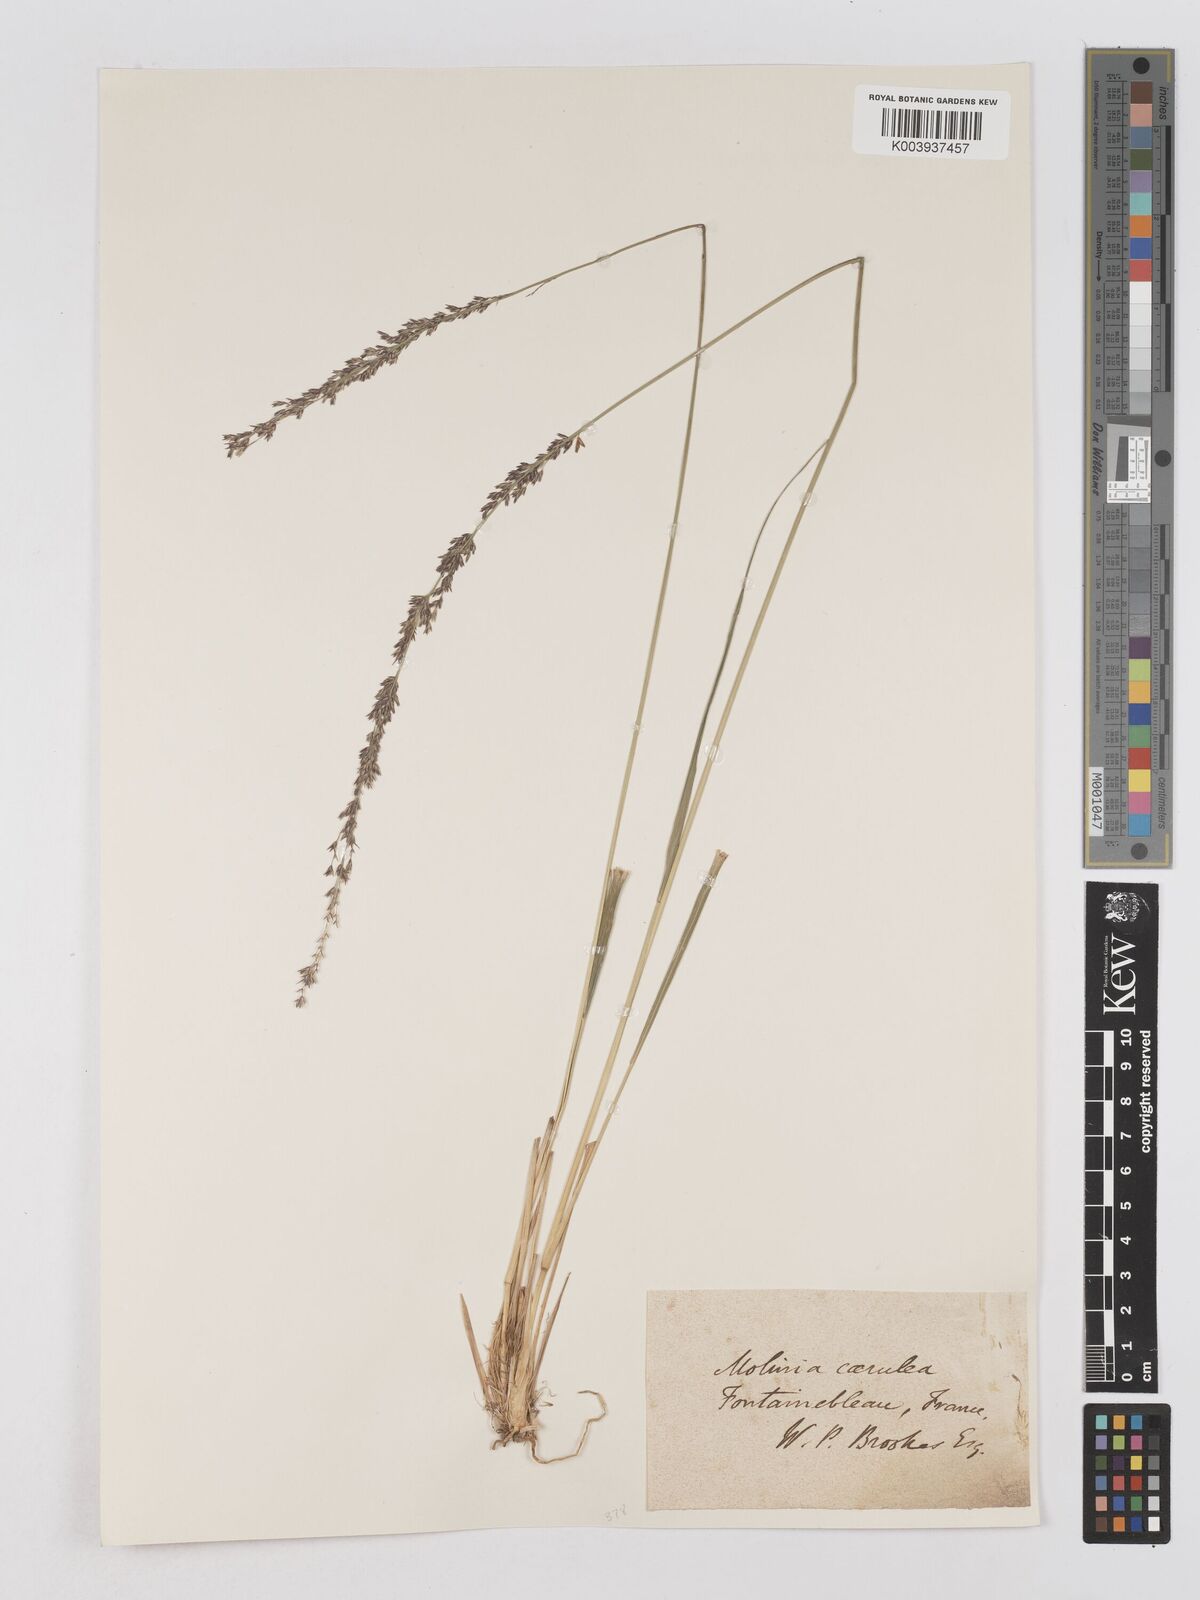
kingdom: Plantae
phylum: Tracheophyta
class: Liliopsida
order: Poales
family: Poaceae
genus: Molinia
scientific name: Molinia caerulea
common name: Purple moor-grass
